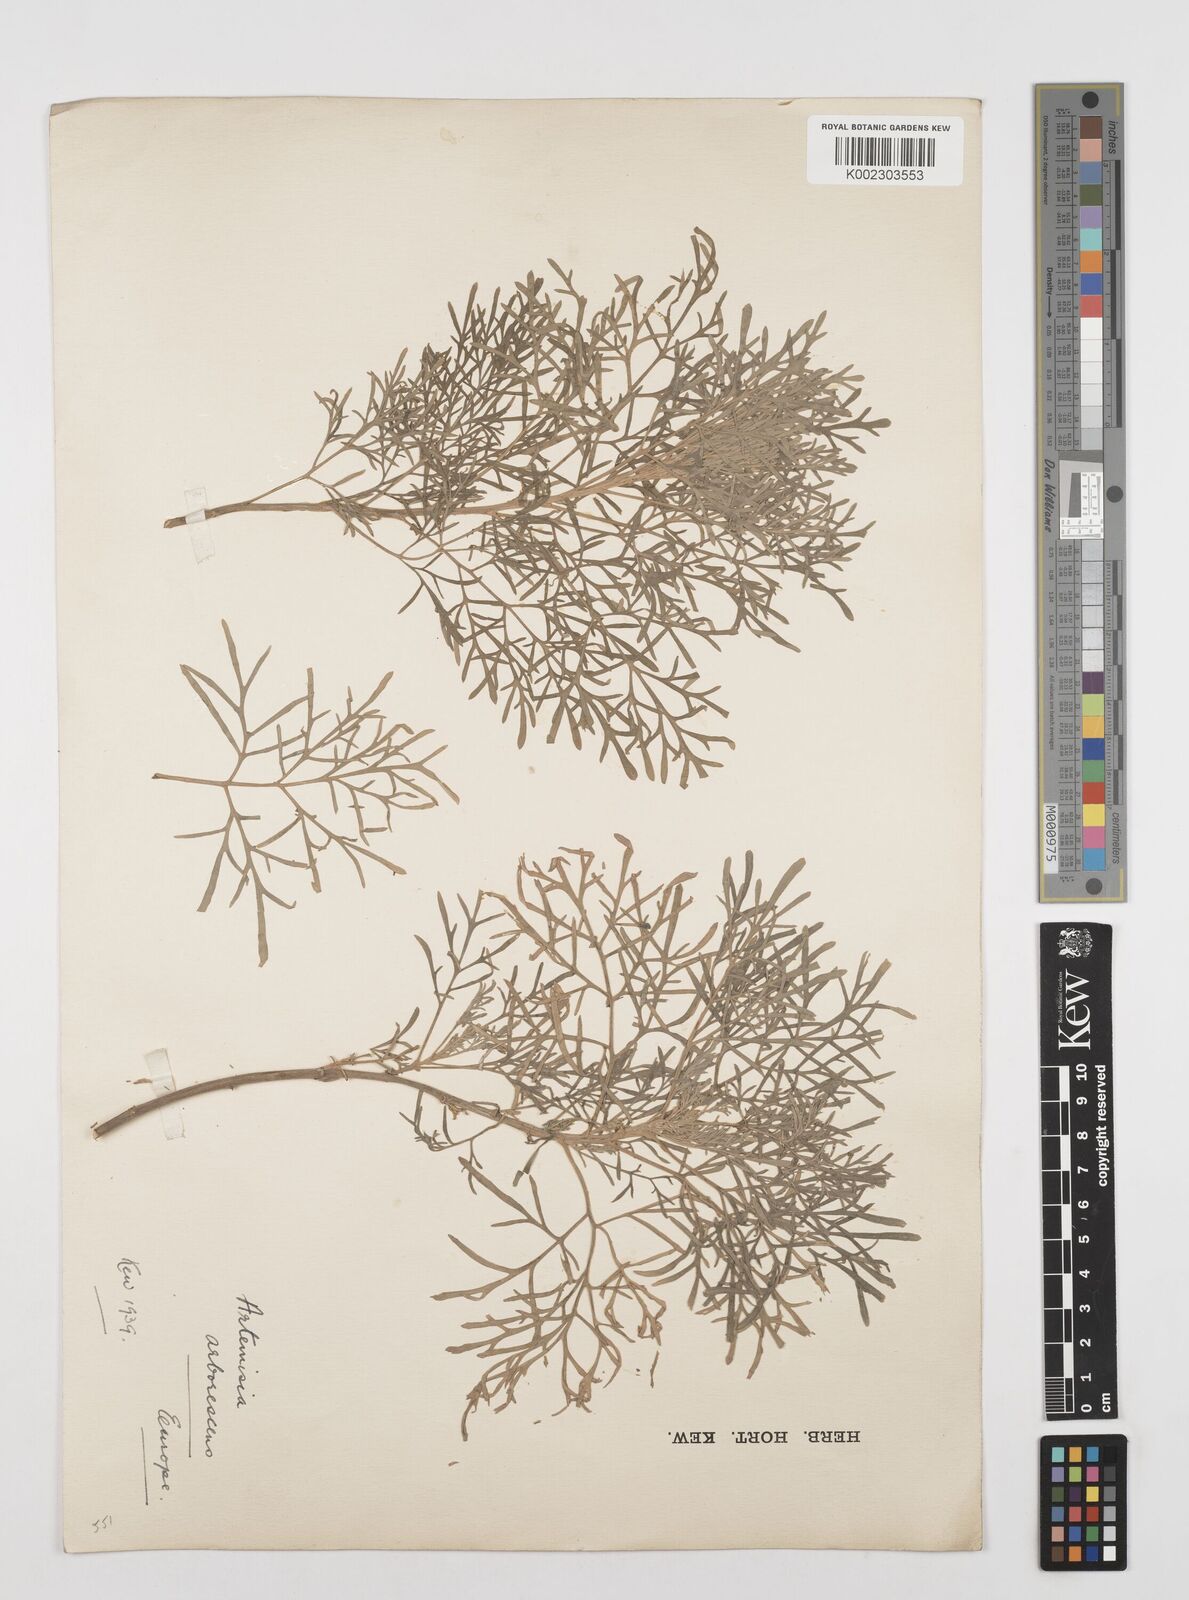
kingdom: Plantae
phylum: Tracheophyta
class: Magnoliopsida
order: Asterales
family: Asteraceae
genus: Artemisia
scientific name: Artemisia arborescens
